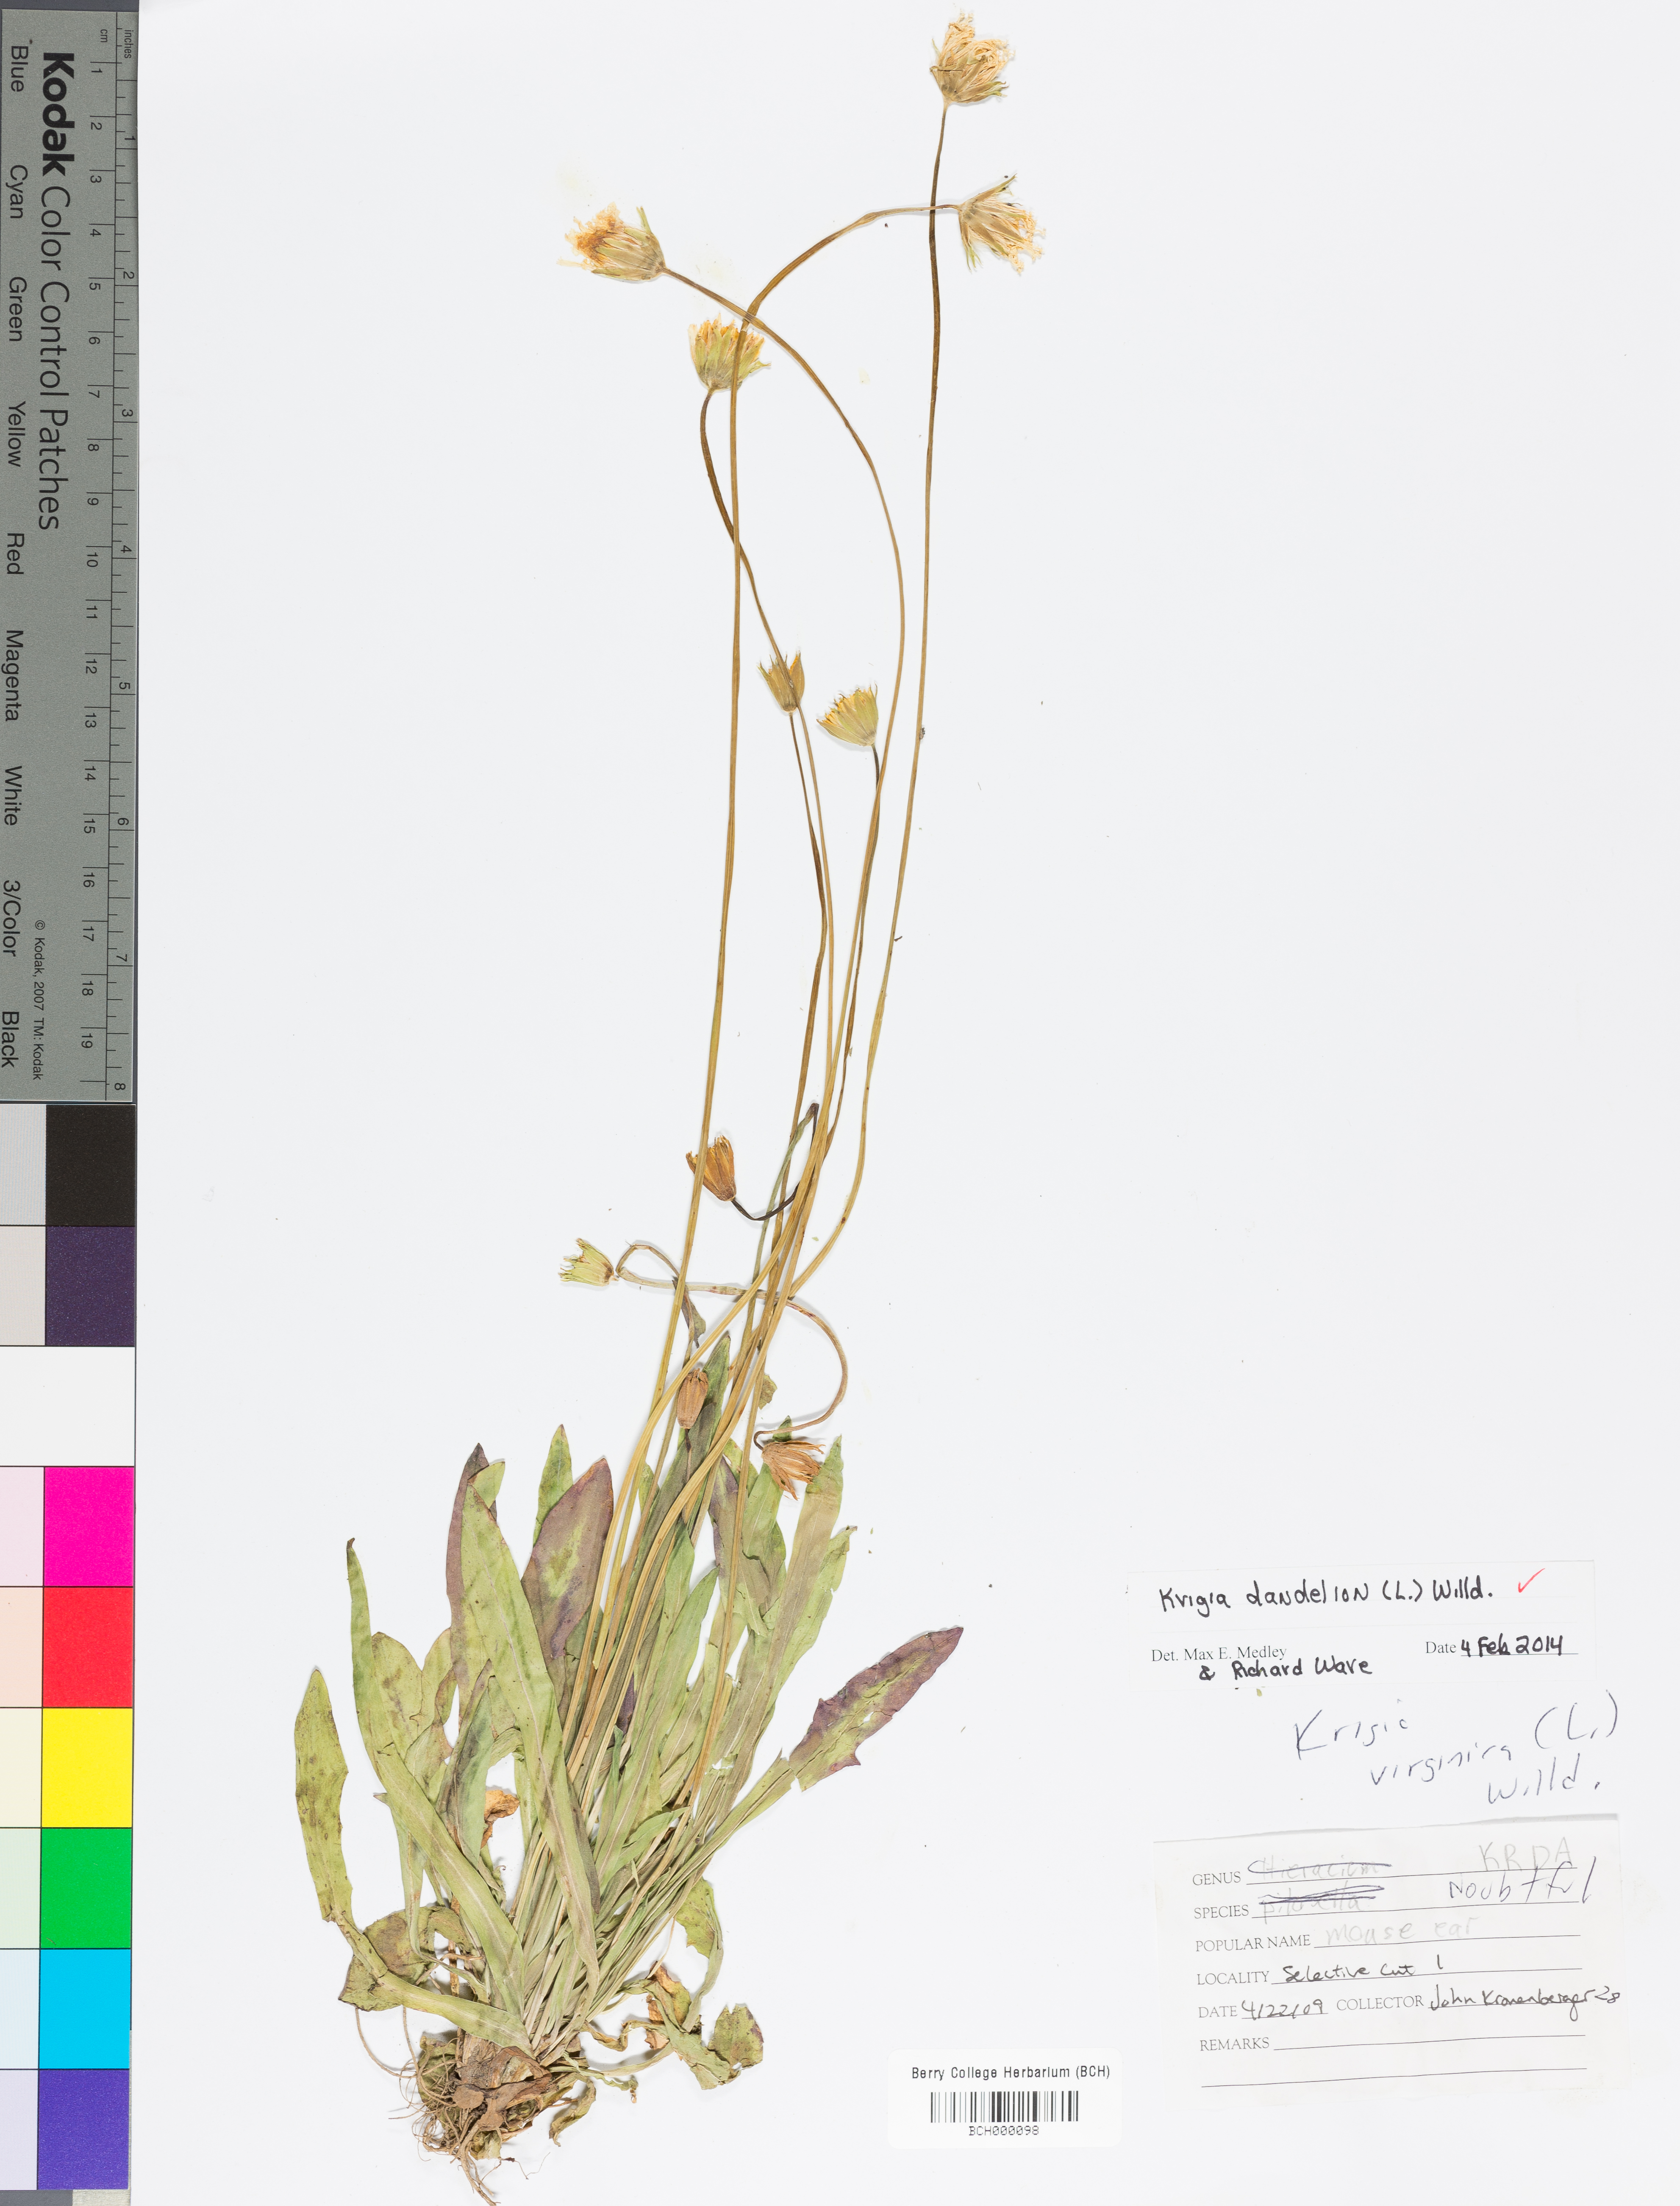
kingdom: Plantae
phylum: Tracheophyta
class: Magnoliopsida
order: Asterales
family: Asteraceae
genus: Krigia
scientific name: Krigia dandelion
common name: Colonial dwarf-dandelion
